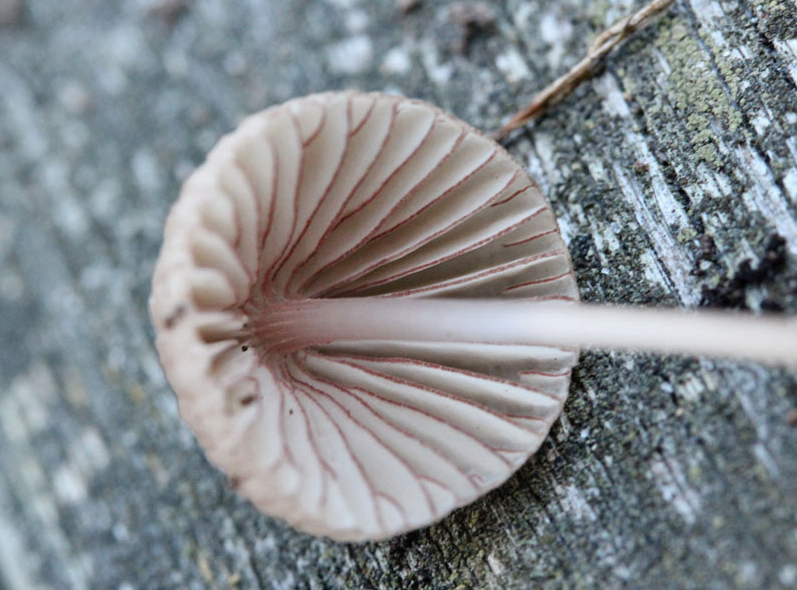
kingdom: Fungi
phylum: Basidiomycota
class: Agaricomycetes
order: Agaricales
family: Mycenaceae
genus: Mycena
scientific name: Mycena rubromarginata
